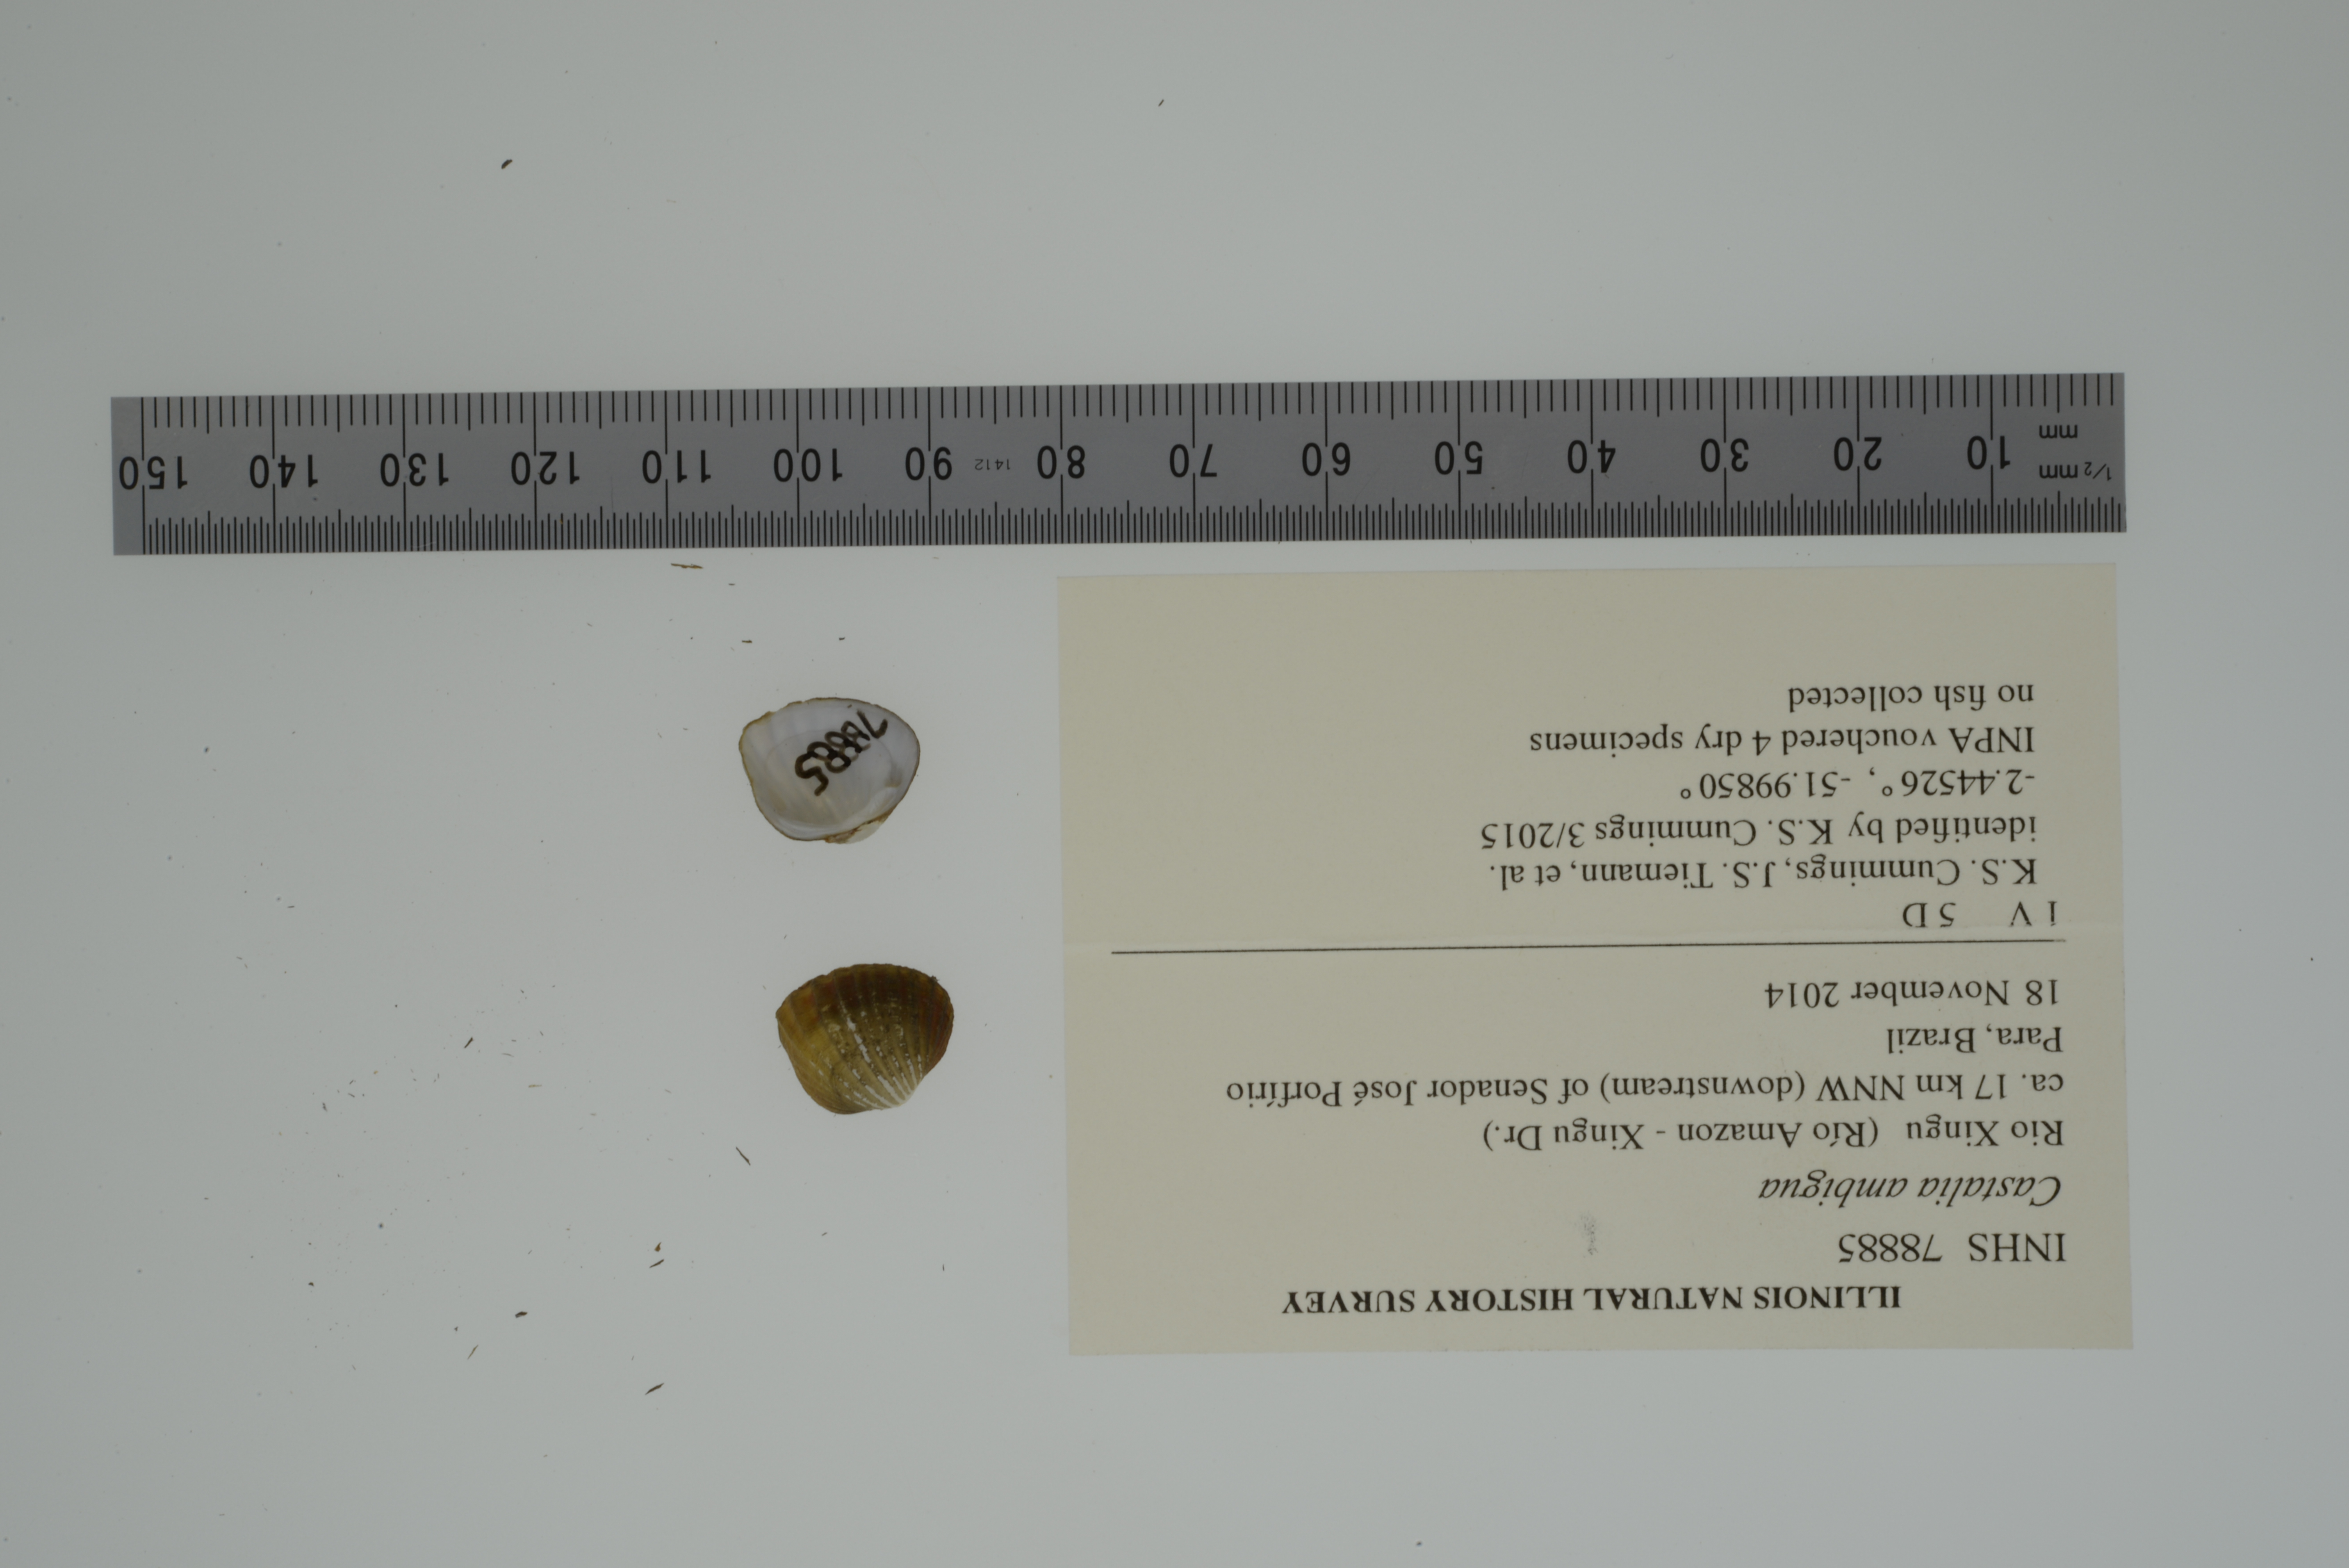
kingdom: Animalia
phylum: Mollusca
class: Bivalvia
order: Unionida
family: Hyriidae
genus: Castalia
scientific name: Castalia ambigua
